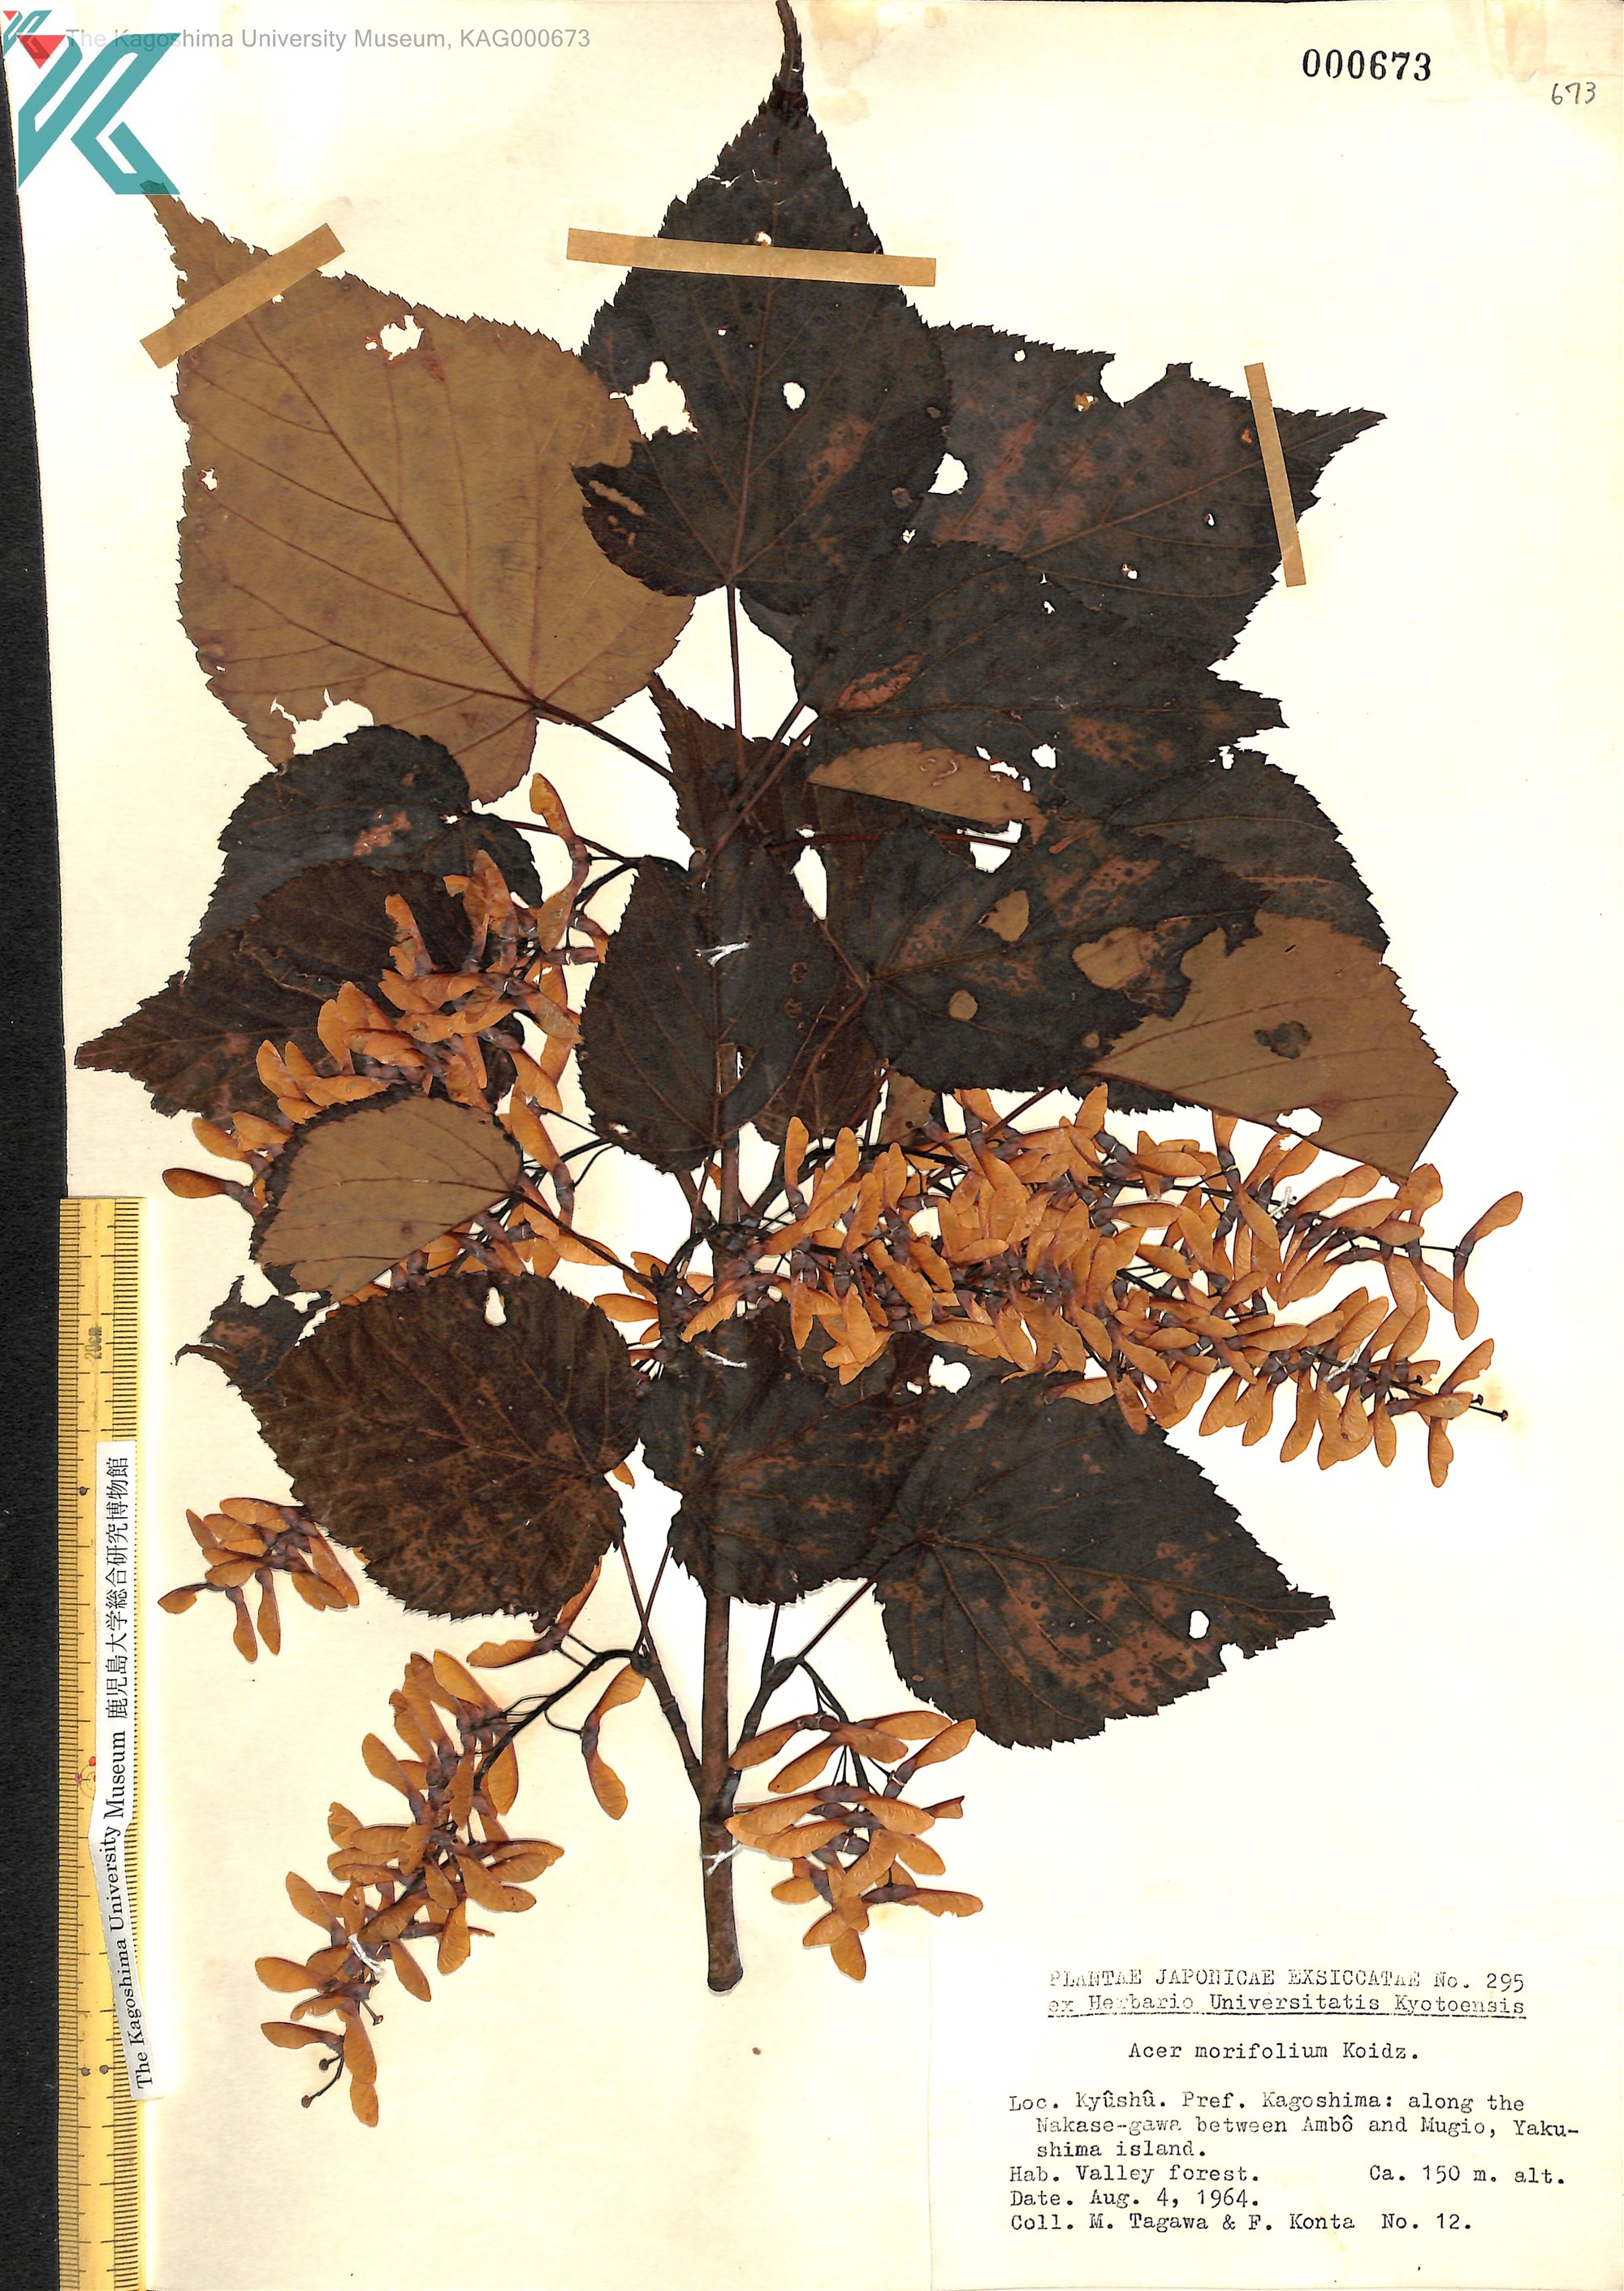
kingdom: Plantae
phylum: Tracheophyta
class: Magnoliopsida
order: Sapindales
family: Sapindaceae
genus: Acer
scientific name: Acer morifolium
